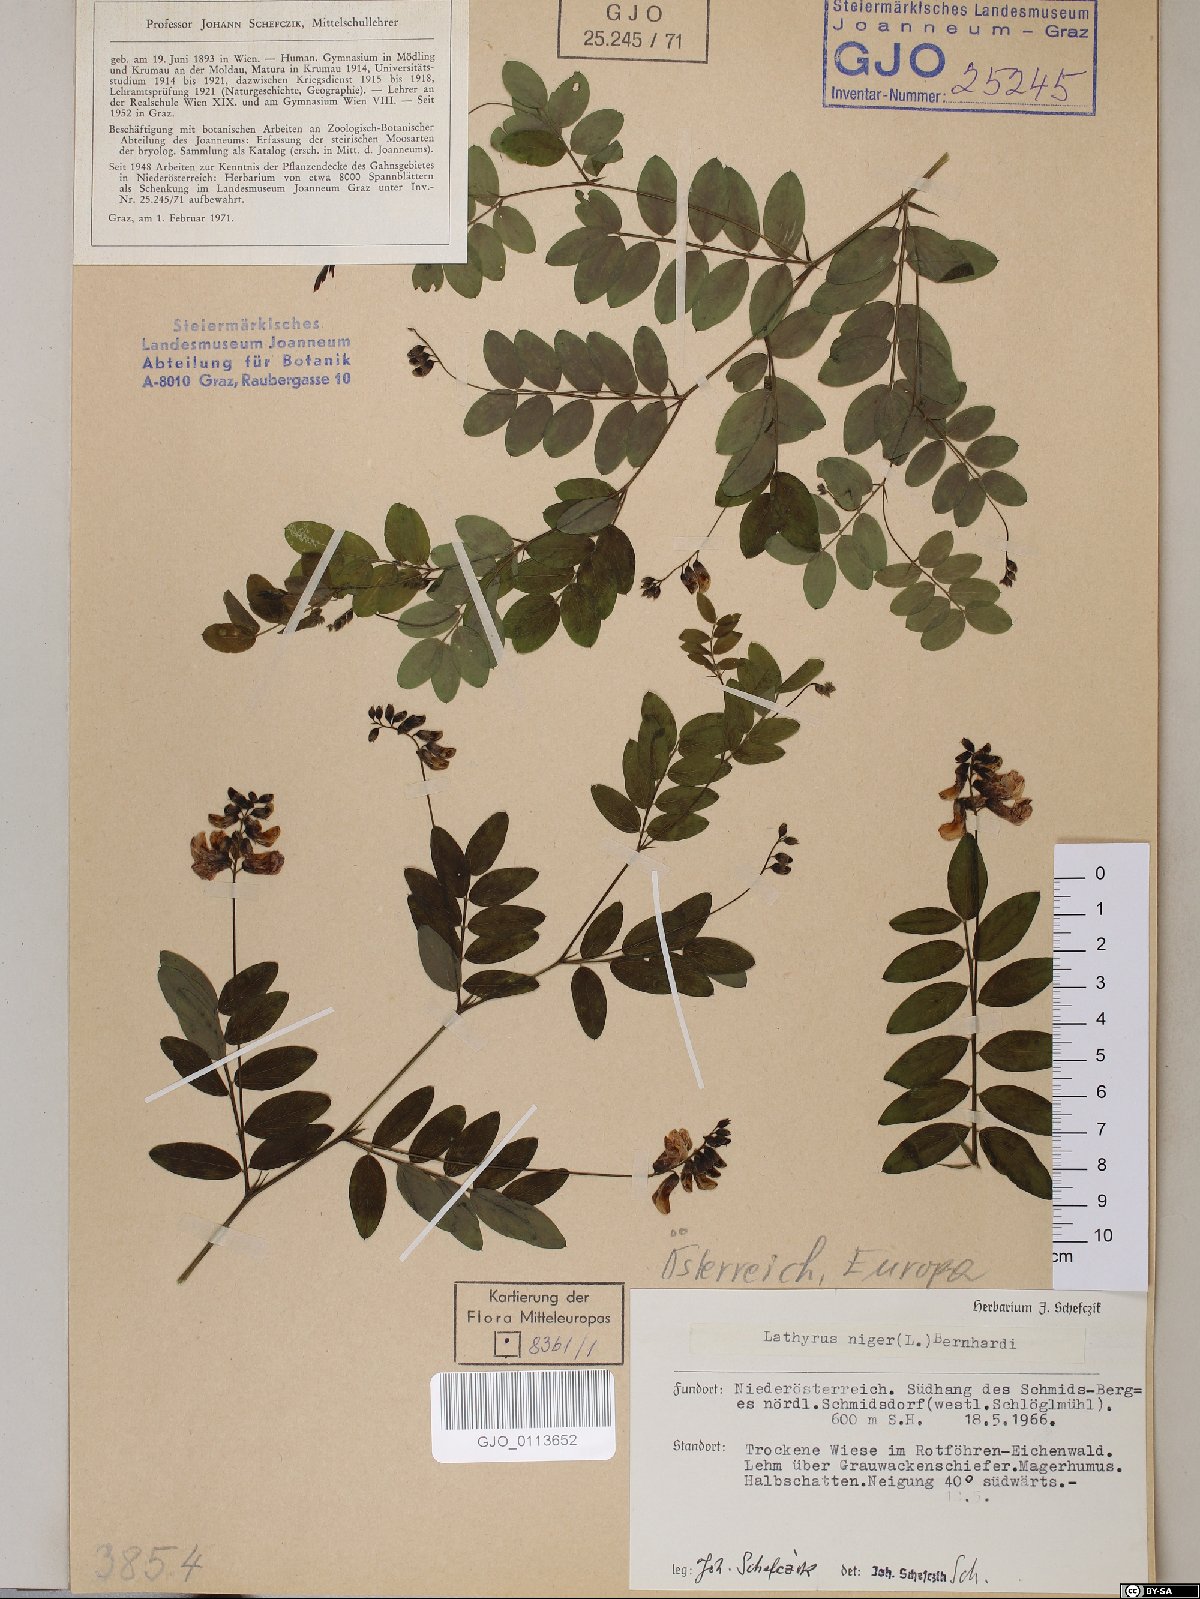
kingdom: Plantae
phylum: Tracheophyta
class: Magnoliopsida
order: Fabales
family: Fabaceae
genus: Lathyrus
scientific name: Lathyrus niger
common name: Black pea
